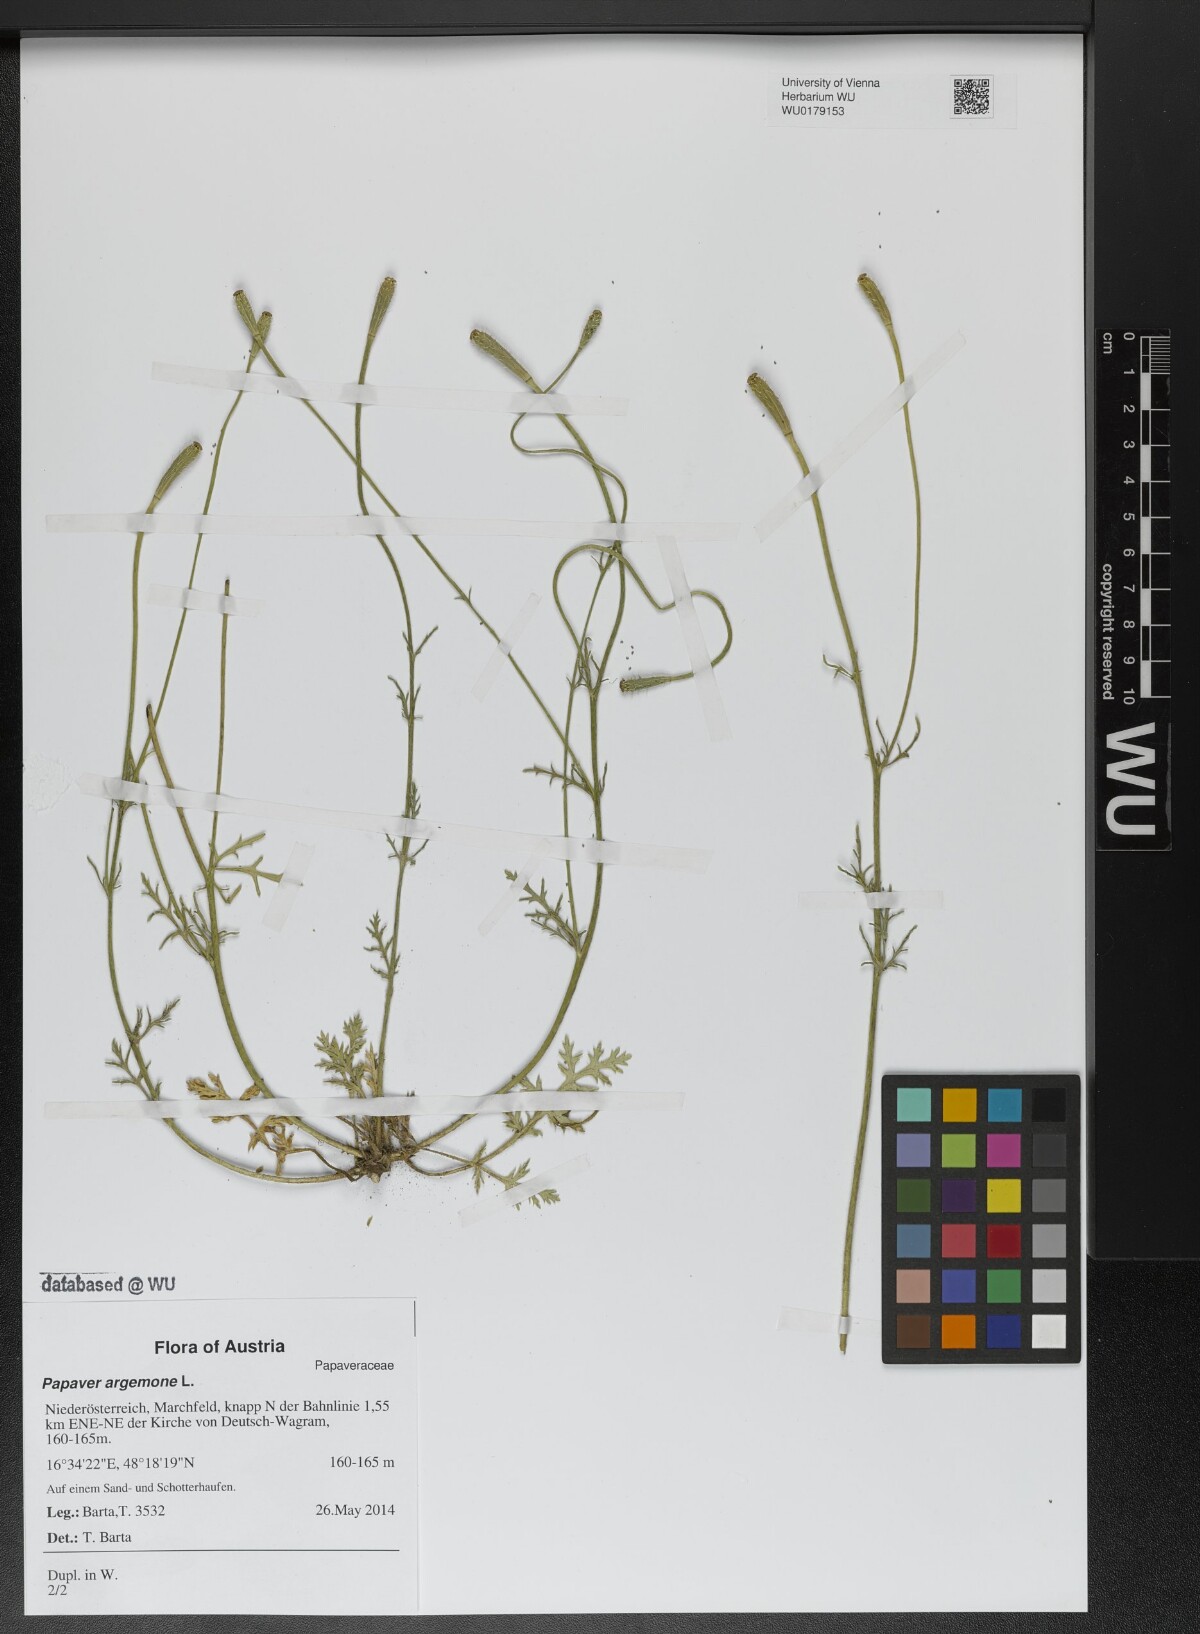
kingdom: Plantae
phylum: Tracheophyta
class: Magnoliopsida
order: Ranunculales
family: Papaveraceae
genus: Roemeria
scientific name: Roemeria argemone
